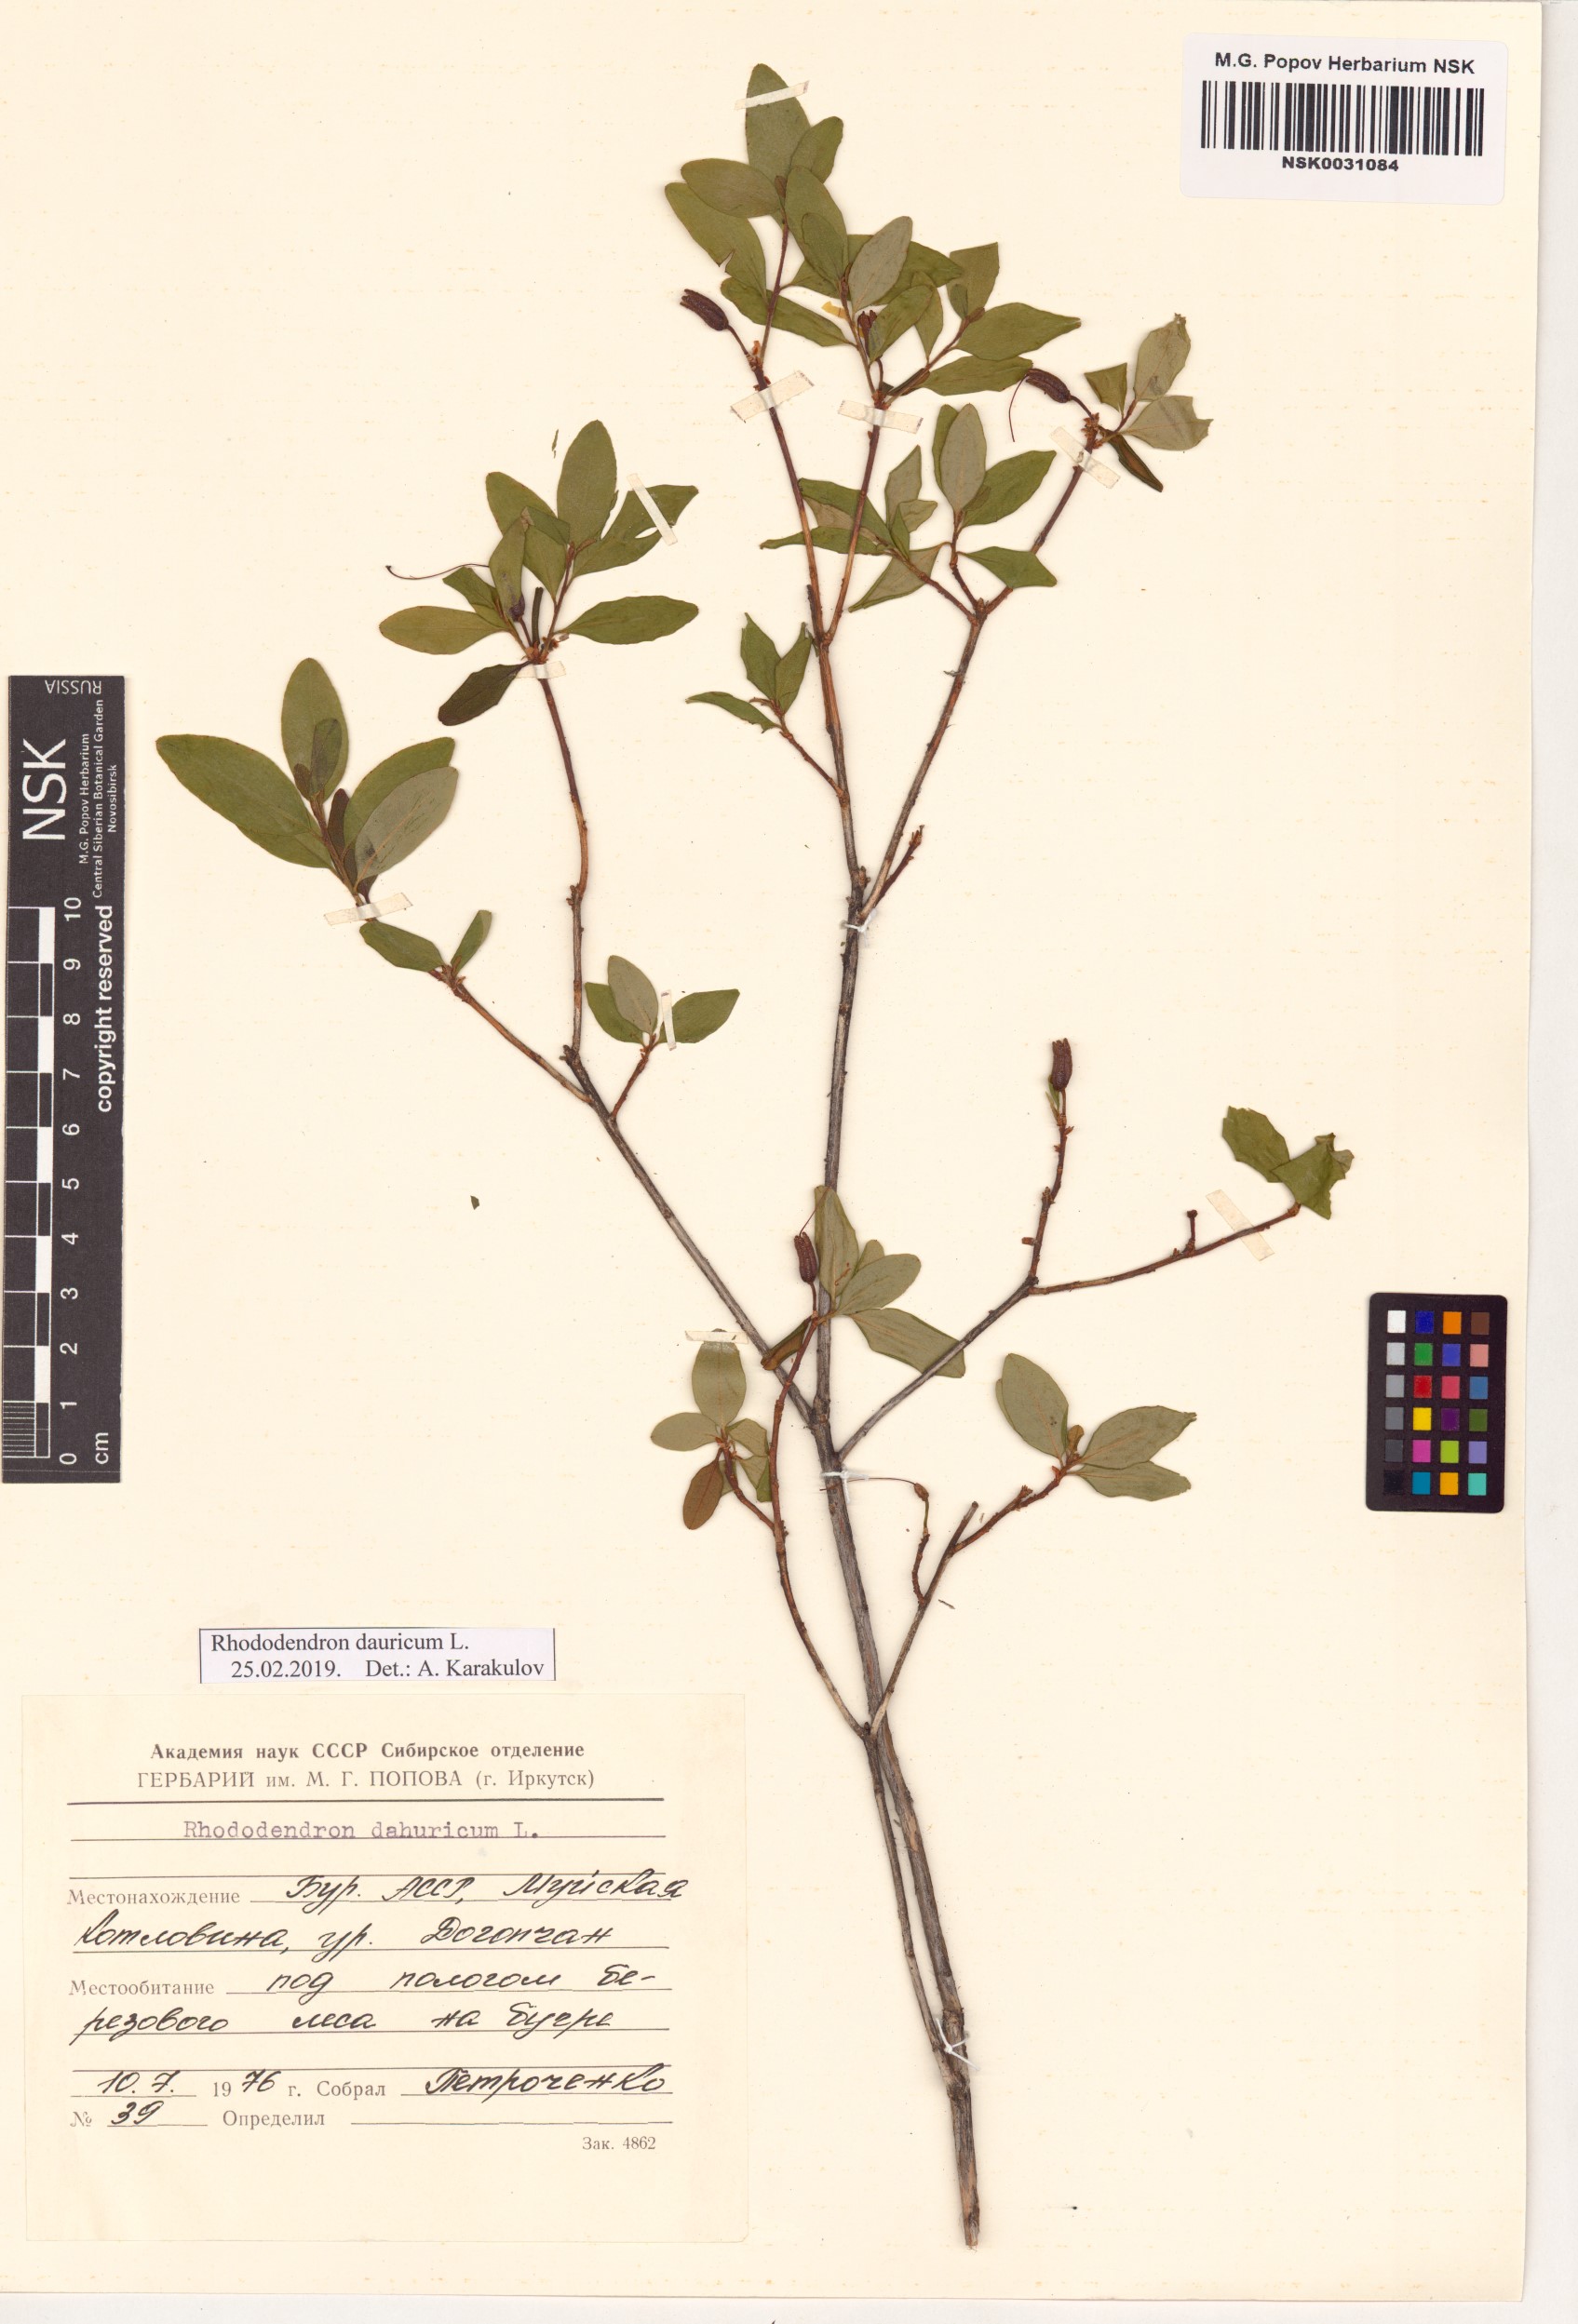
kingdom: Plantae
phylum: Tracheophyta
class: Magnoliopsida
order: Ericales
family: Ericaceae
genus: Rhododendron
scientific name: Rhododendron dauricum
